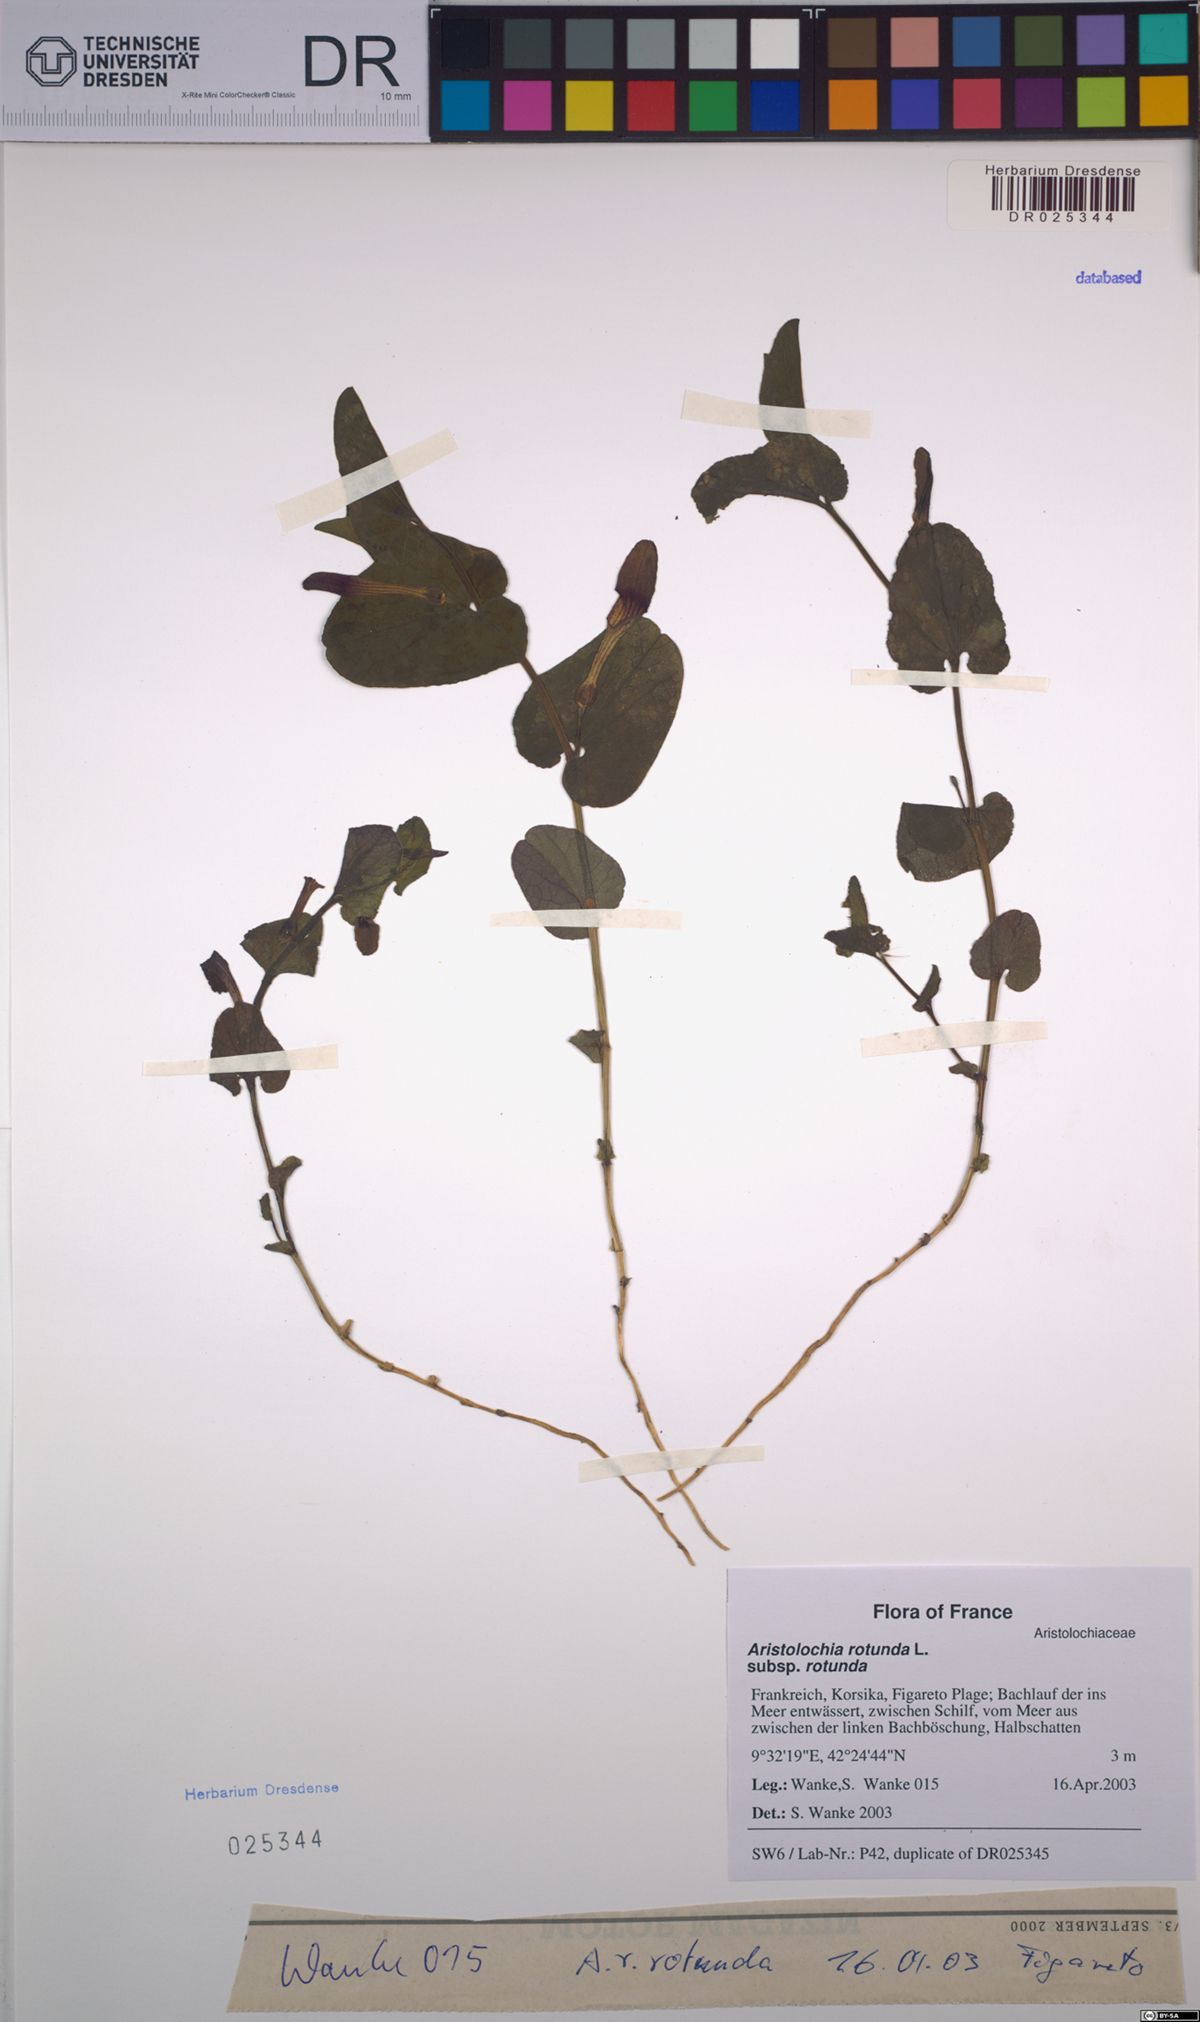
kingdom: Plantae
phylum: Tracheophyta
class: Magnoliopsida
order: Piperales
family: Aristolochiaceae
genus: Aristolochia
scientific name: Aristolochia rotunda
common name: Smearwort
